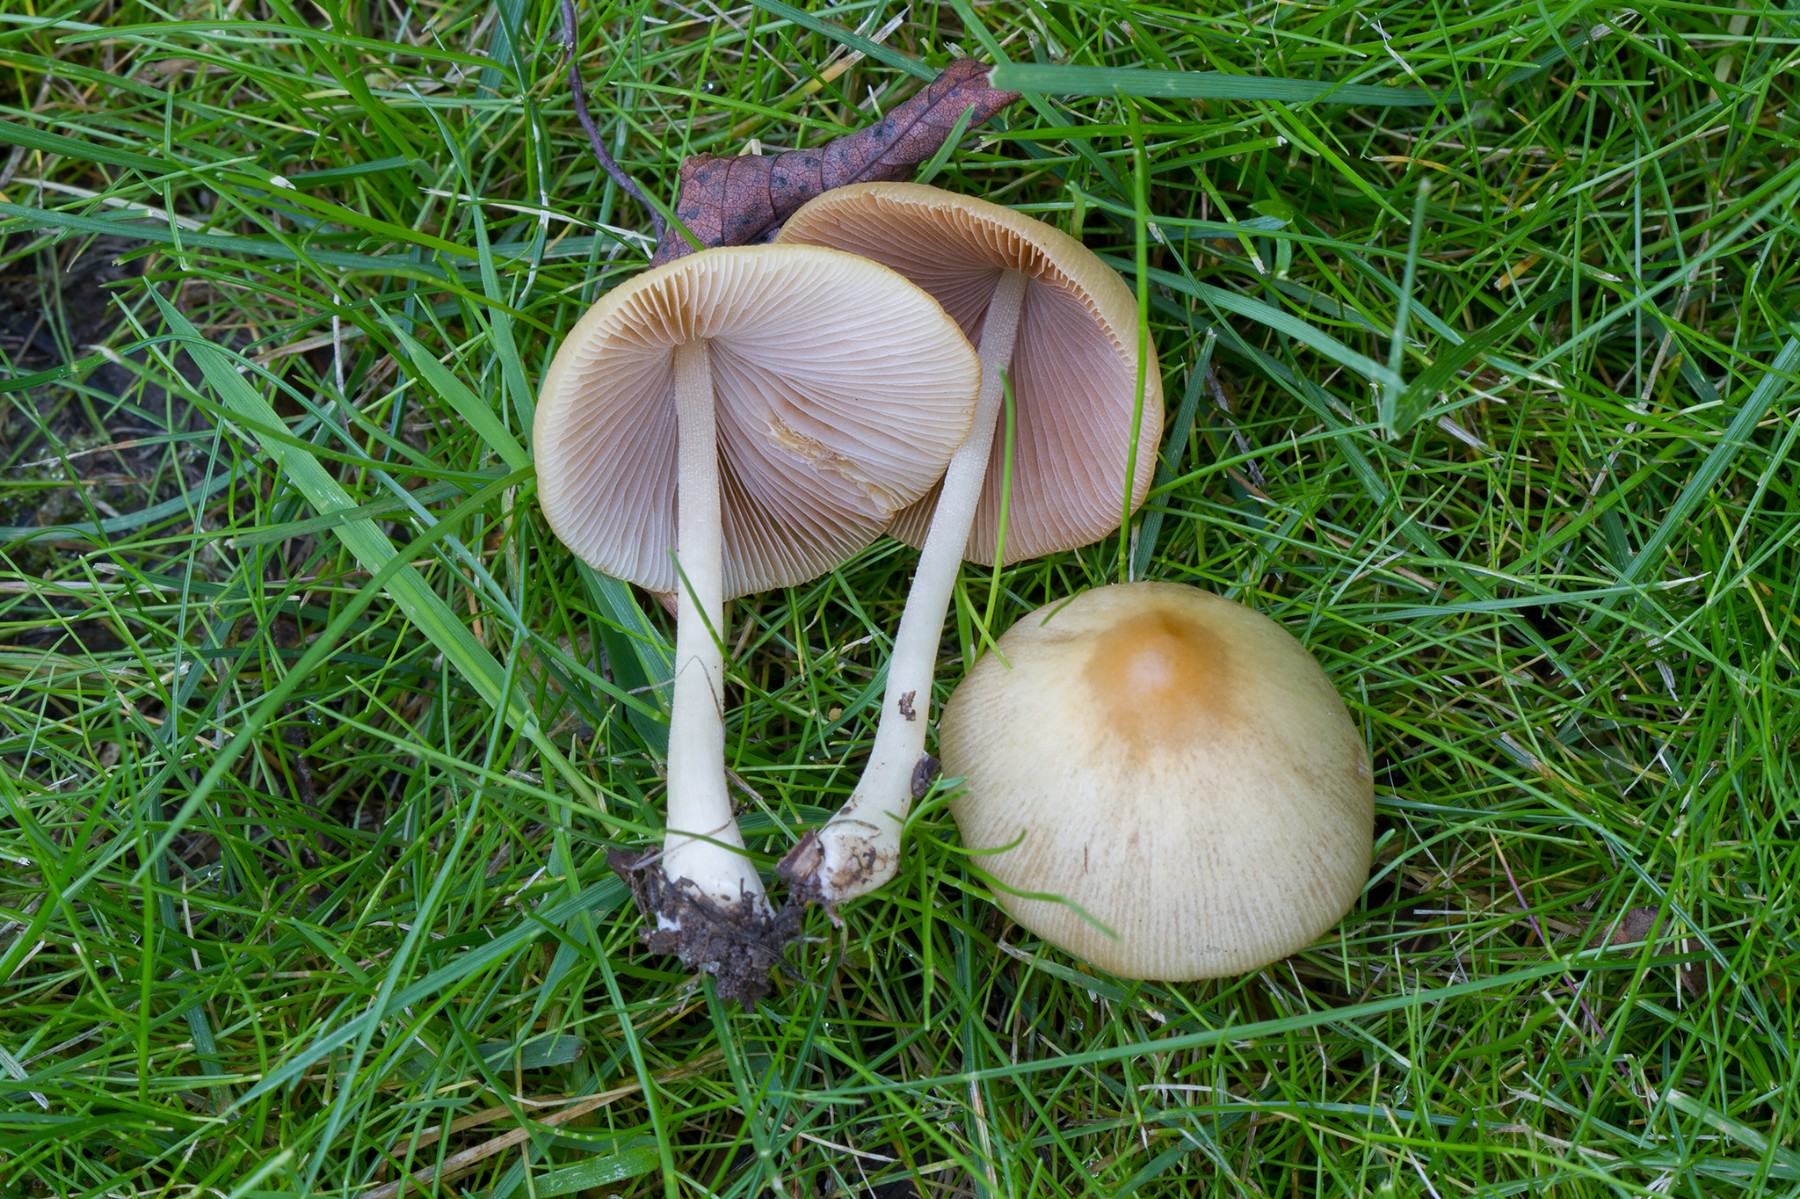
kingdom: Fungi
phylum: Basidiomycota
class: Agaricomycetes
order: Agaricales
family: Bolbitiaceae
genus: Conocybe
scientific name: Conocybe inocybeoides
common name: knold-keglehat
